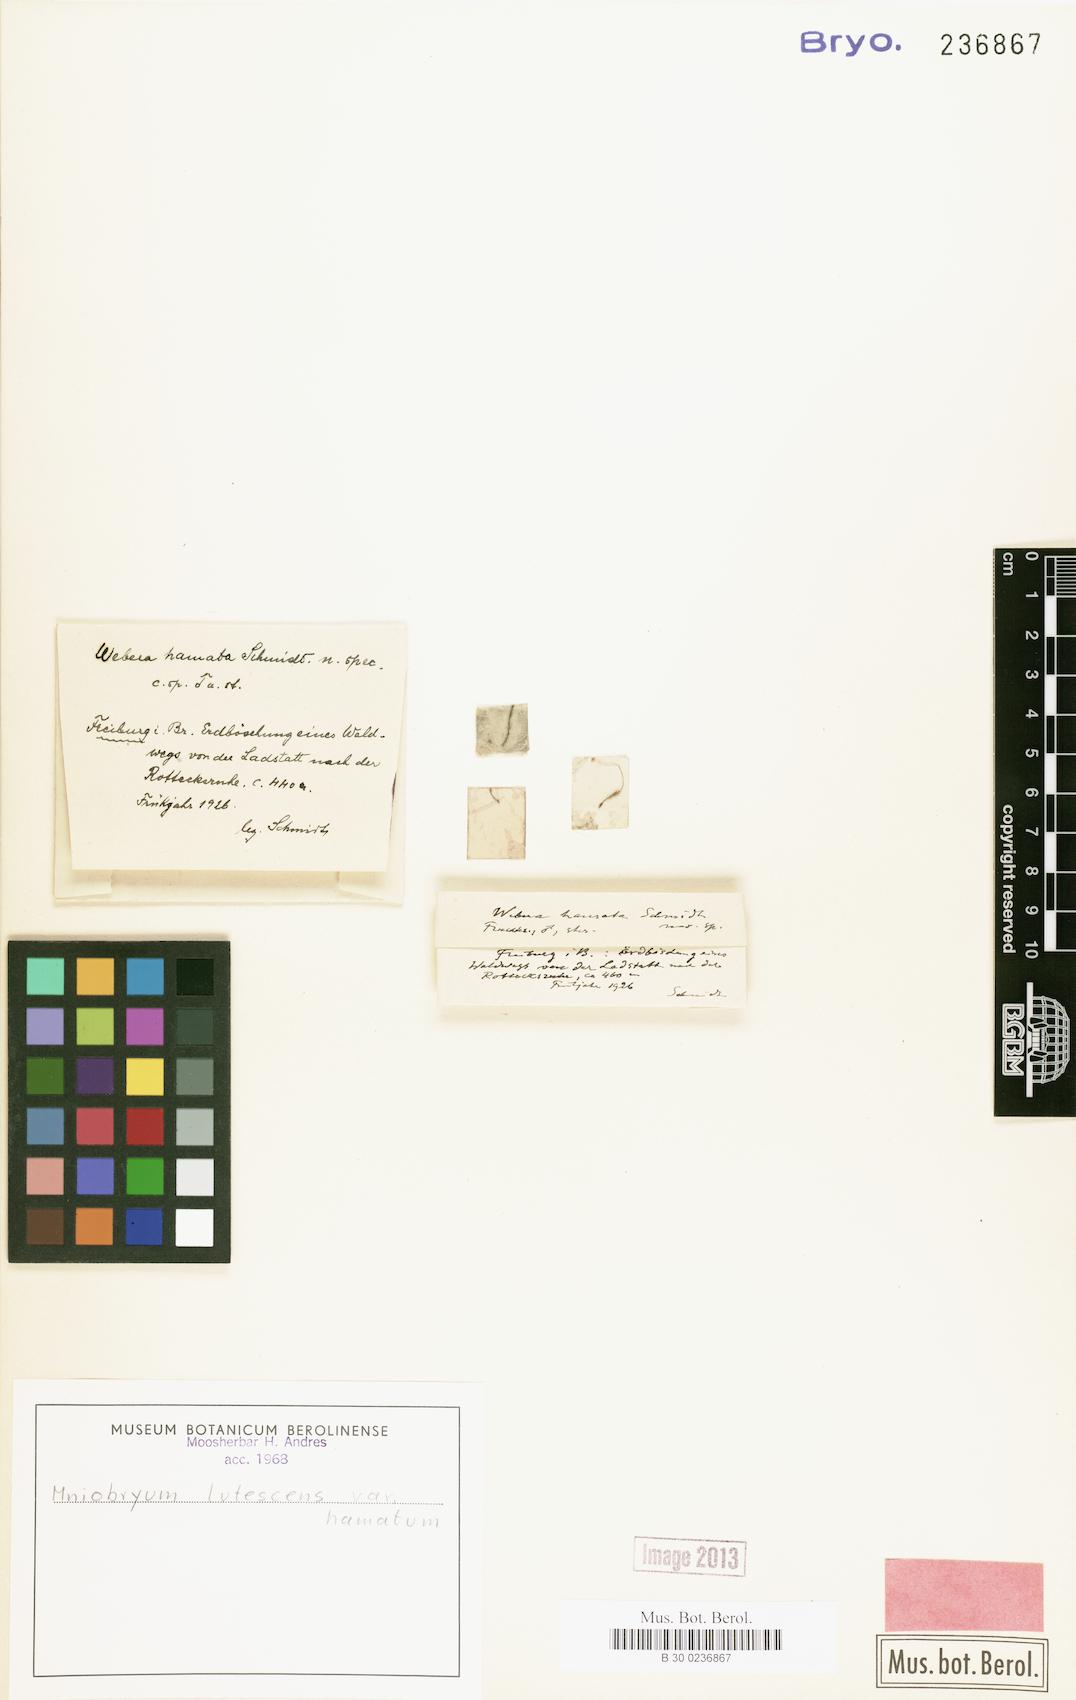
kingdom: Plantae
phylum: Bryophyta
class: Bryopsida
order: Bryales
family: Mniaceae
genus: Pohlia
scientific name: Pohlia lutescens
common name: Yellow thread-moss
